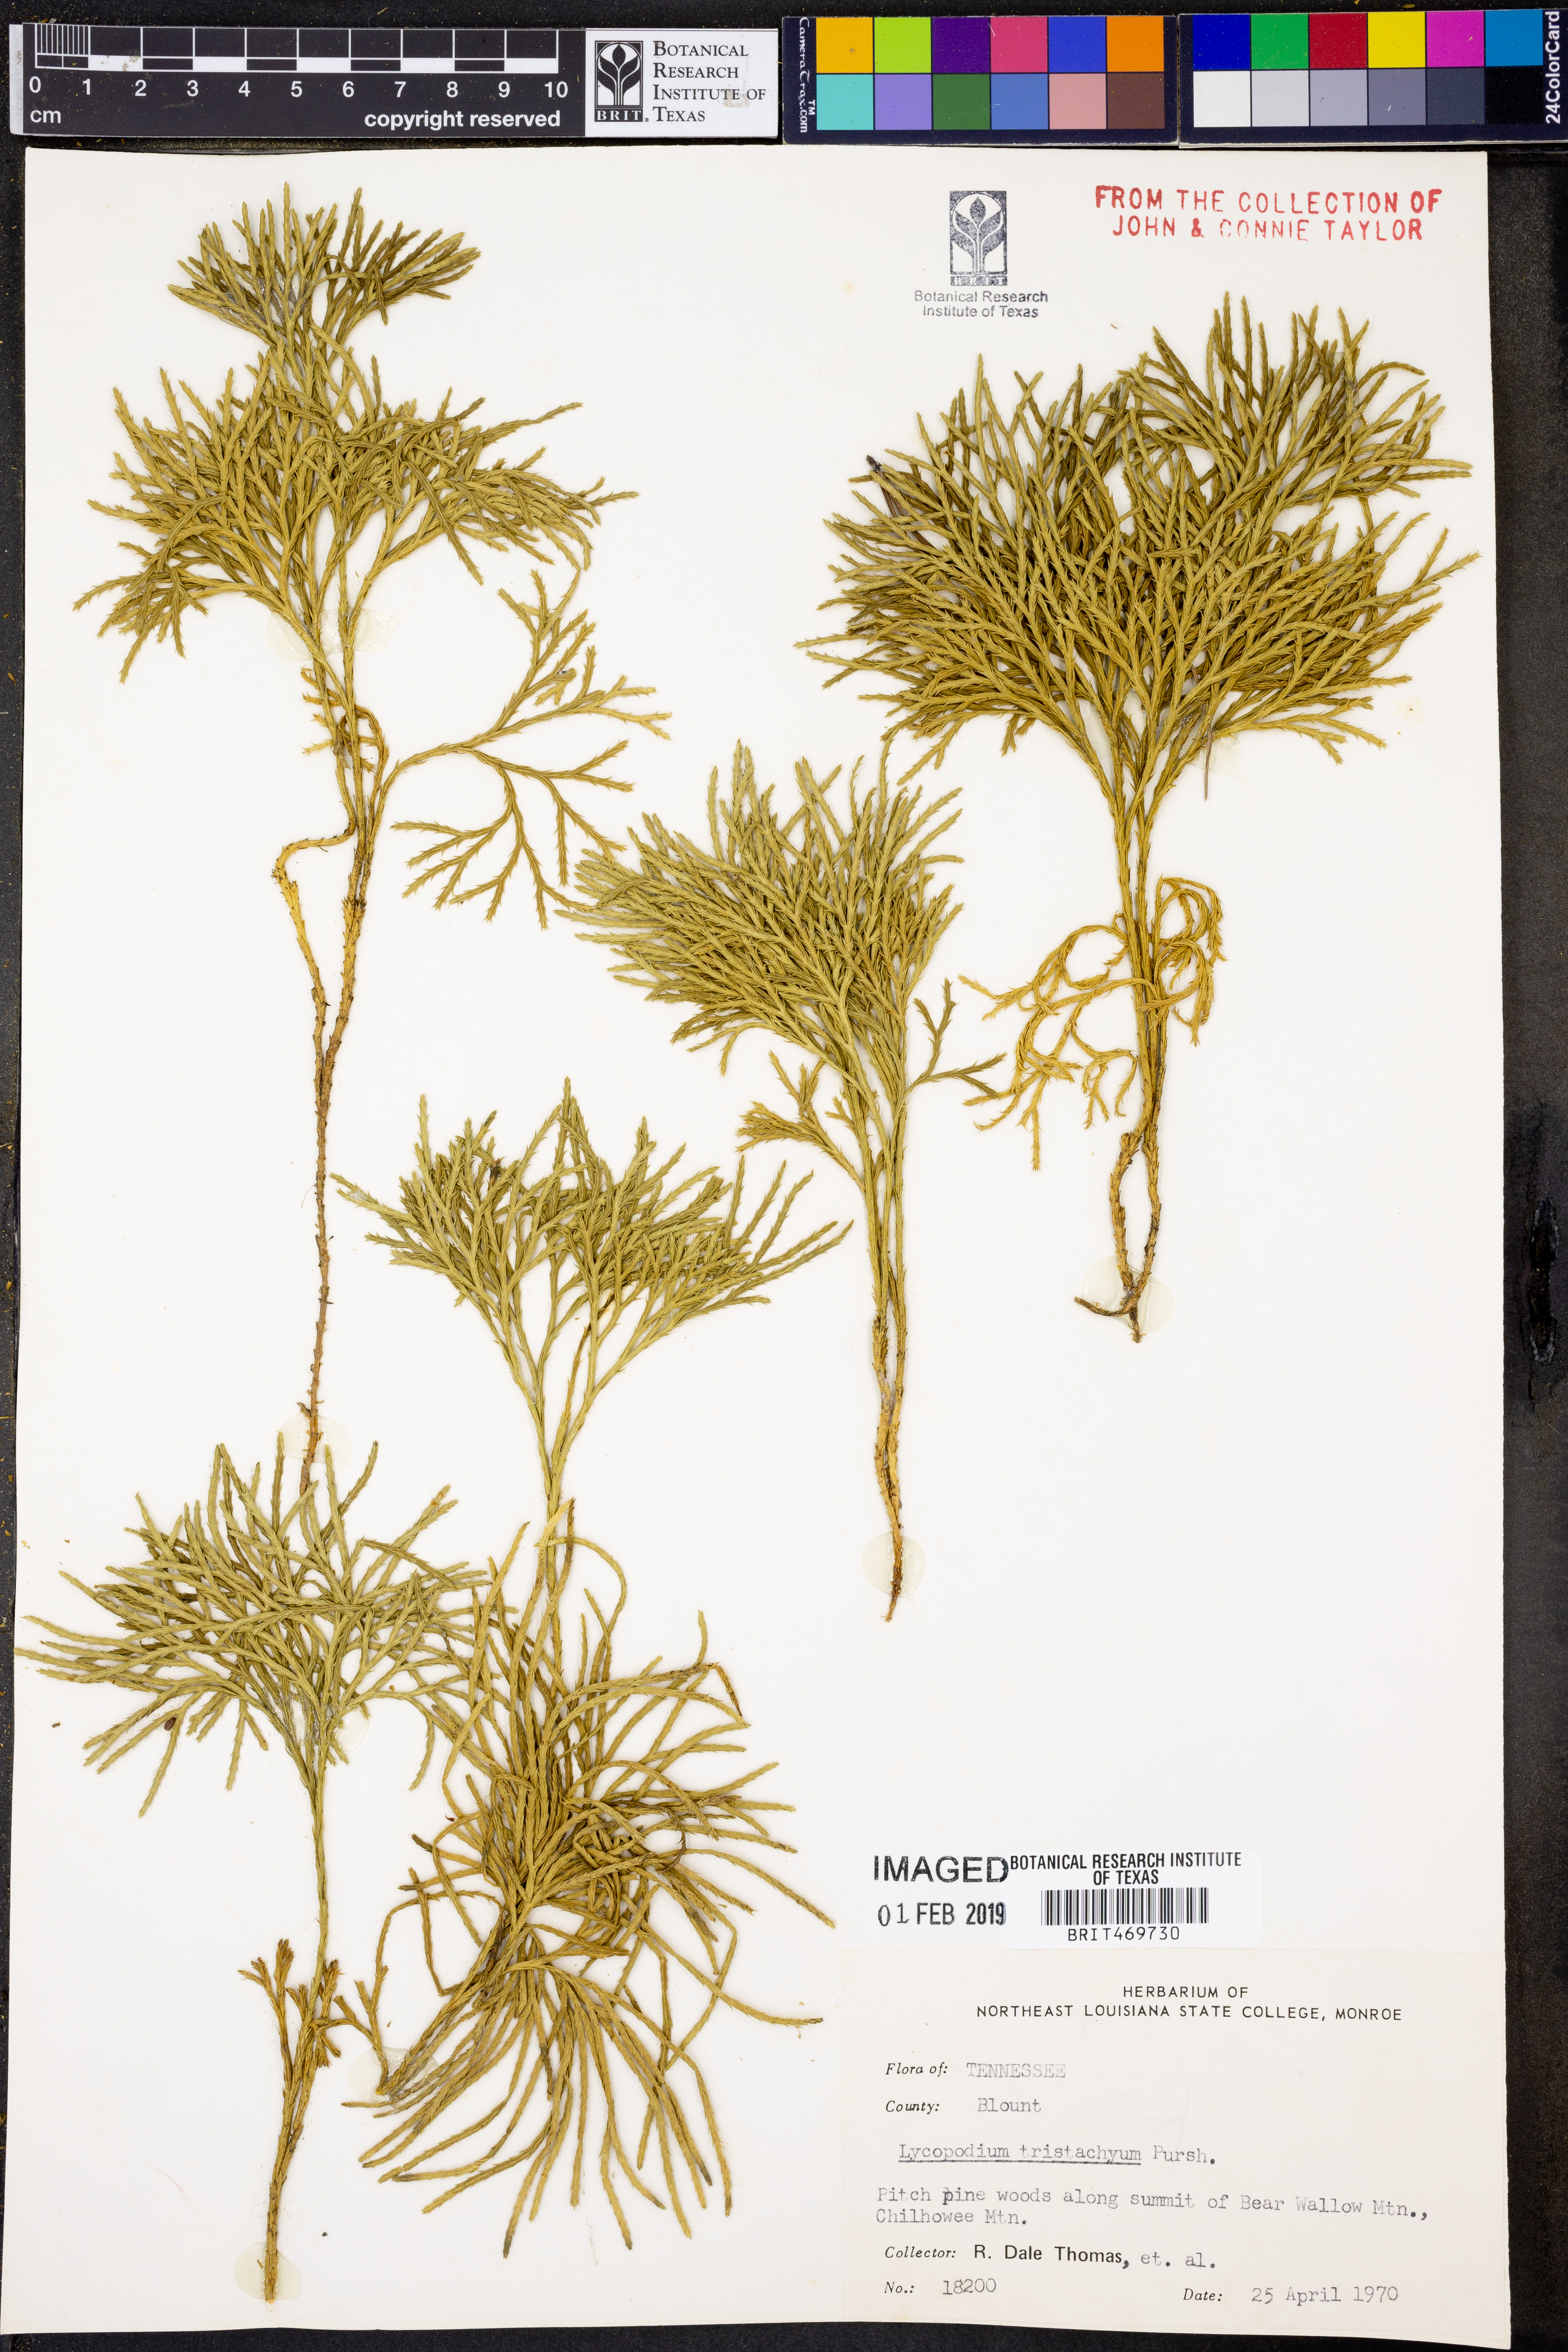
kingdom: Plantae
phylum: Tracheophyta
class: Lycopodiopsida
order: Lycopodiales
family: Lycopodiaceae
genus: Diphasiastrum
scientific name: Diphasiastrum tristachyum
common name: Blue ground-cedar
